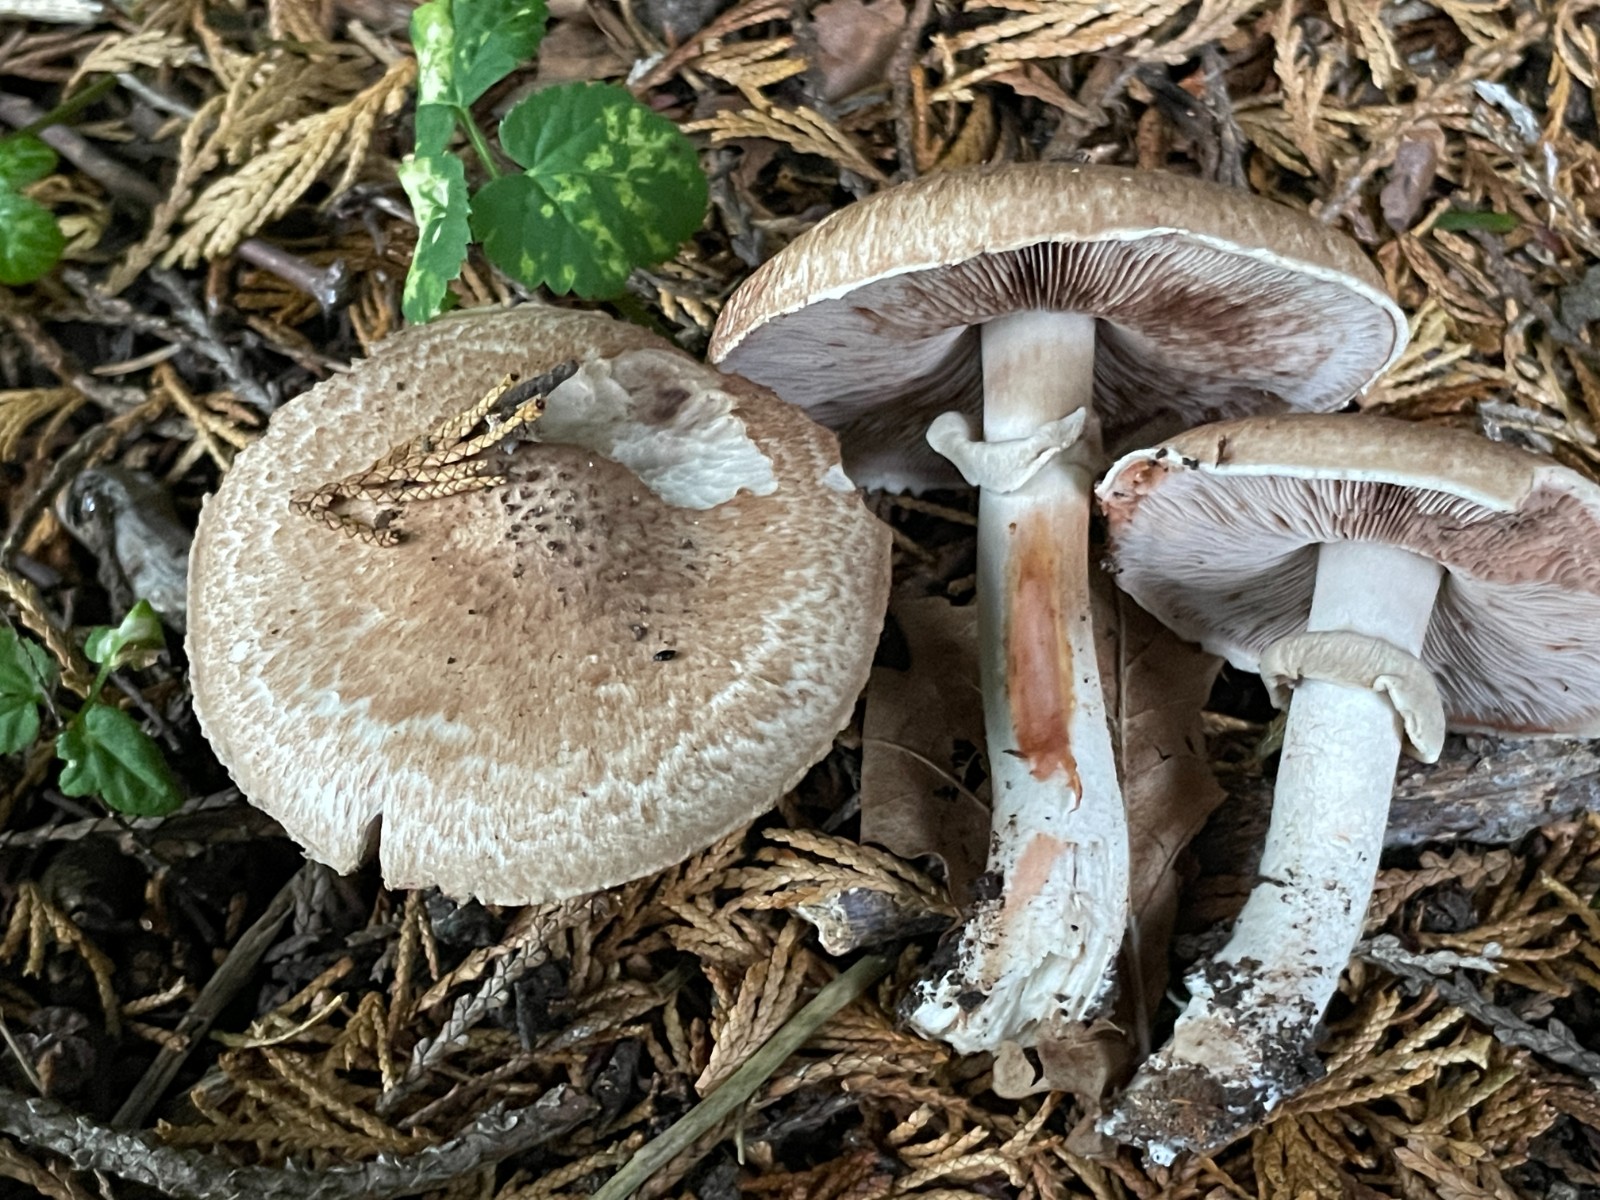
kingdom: Fungi
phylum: Basidiomycota
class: Agaricomycetes
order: Agaricales
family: Agaricaceae
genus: Agaricus
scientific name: Agaricus
